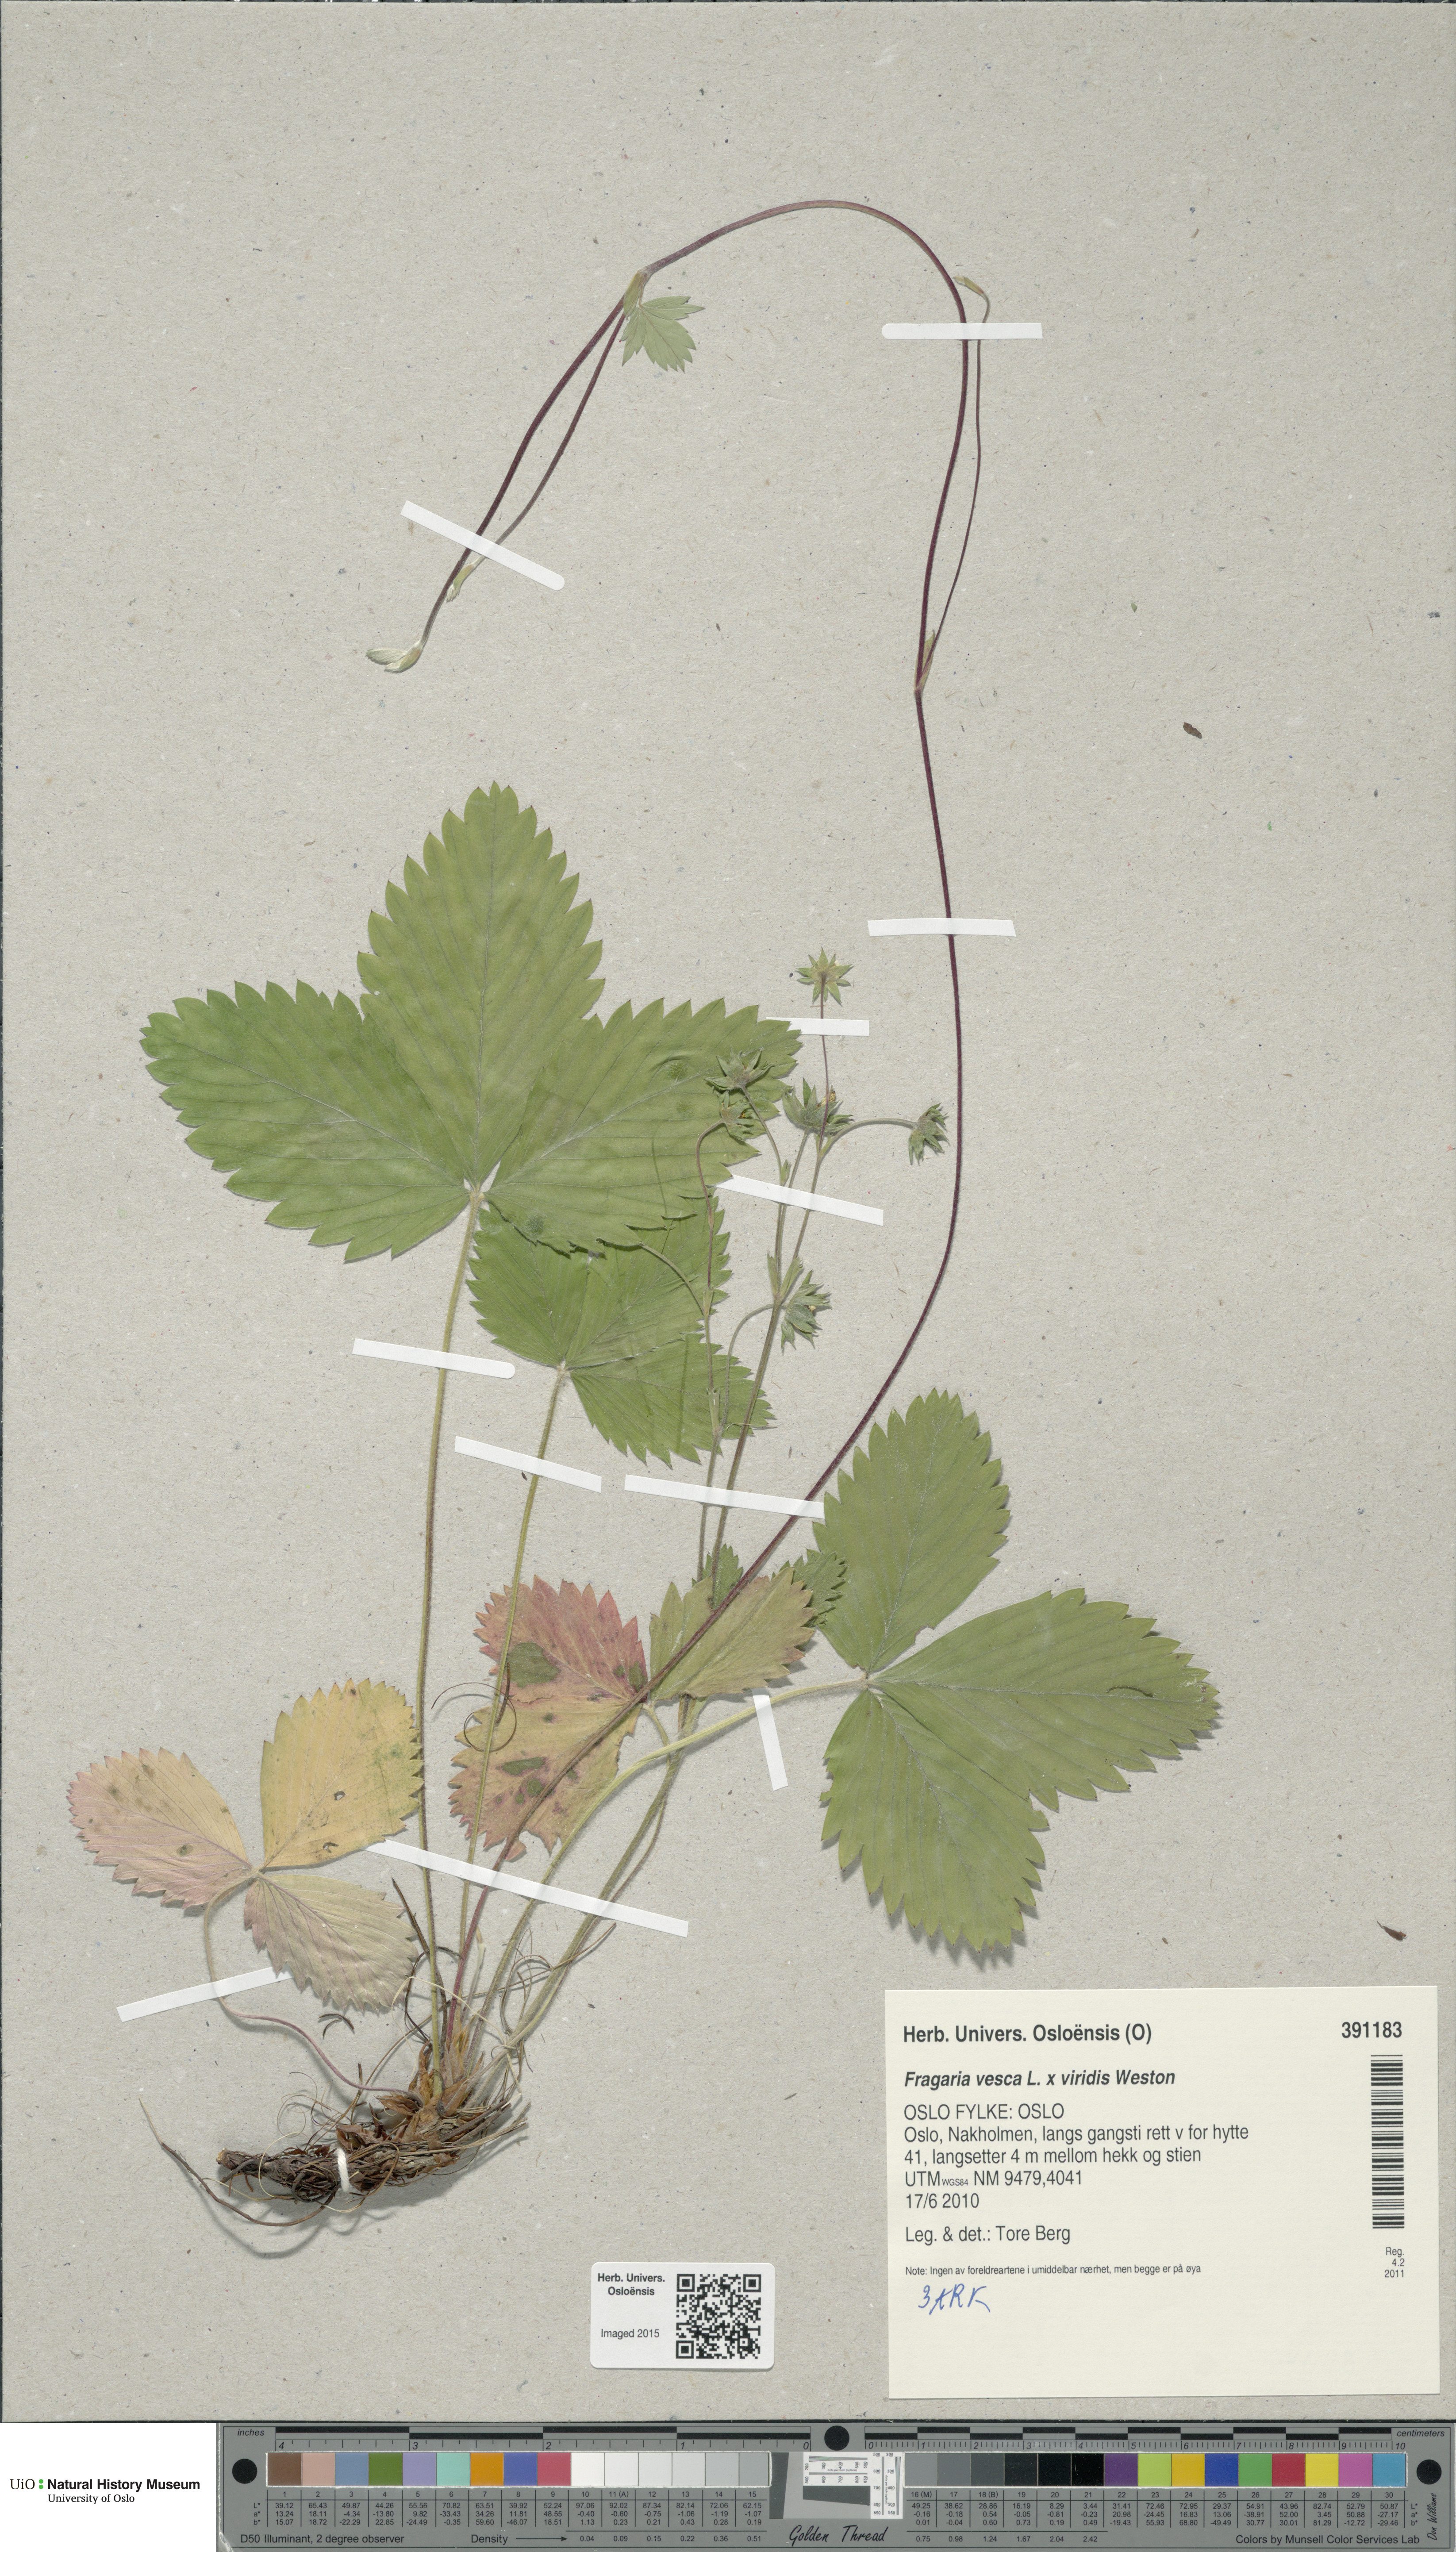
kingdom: Plantae
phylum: Tracheophyta
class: Magnoliopsida
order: Rosales
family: Rosaceae
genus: Fragaria
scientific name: Fragaria
